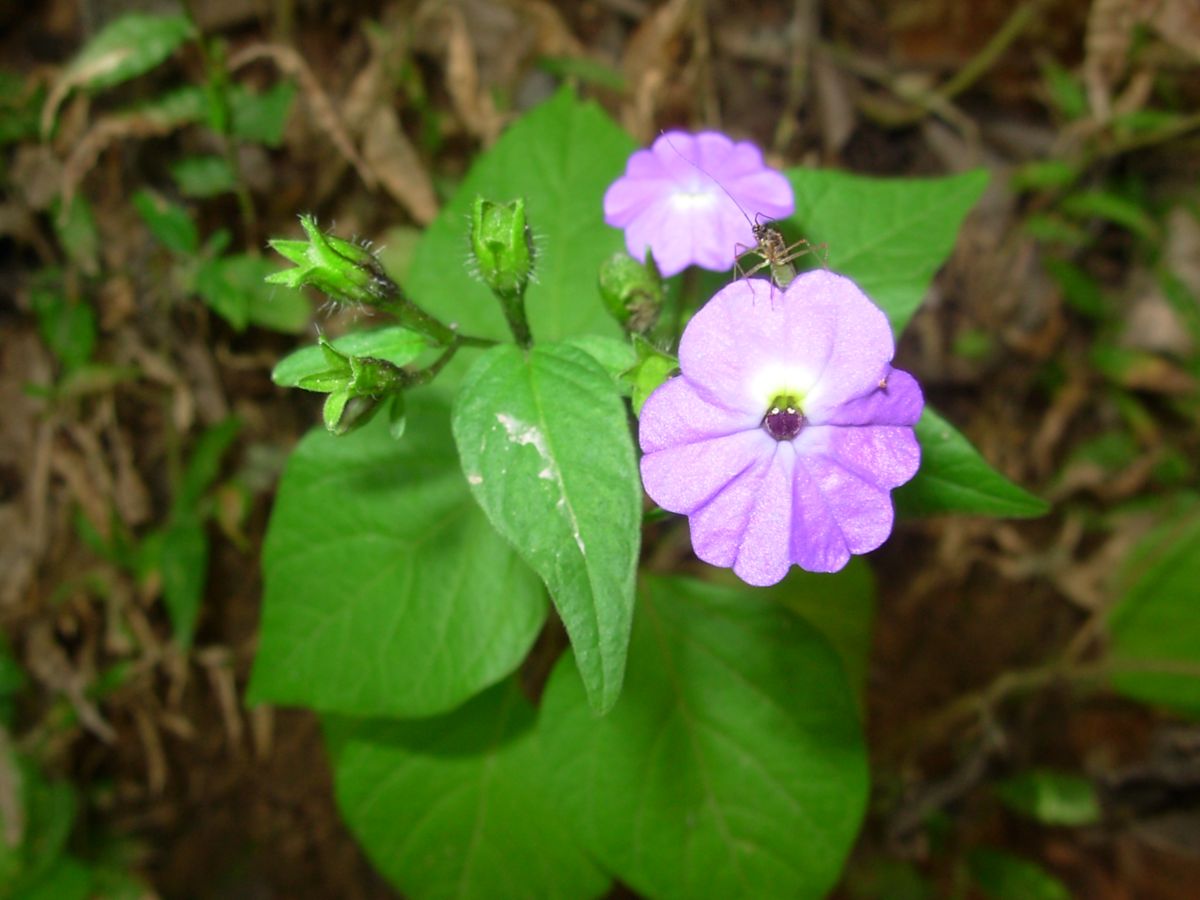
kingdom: Plantae
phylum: Tracheophyta
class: Magnoliopsida
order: Solanales
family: Solanaceae
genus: Browallia
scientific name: Browallia americana
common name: Jamaican forget-me-not
